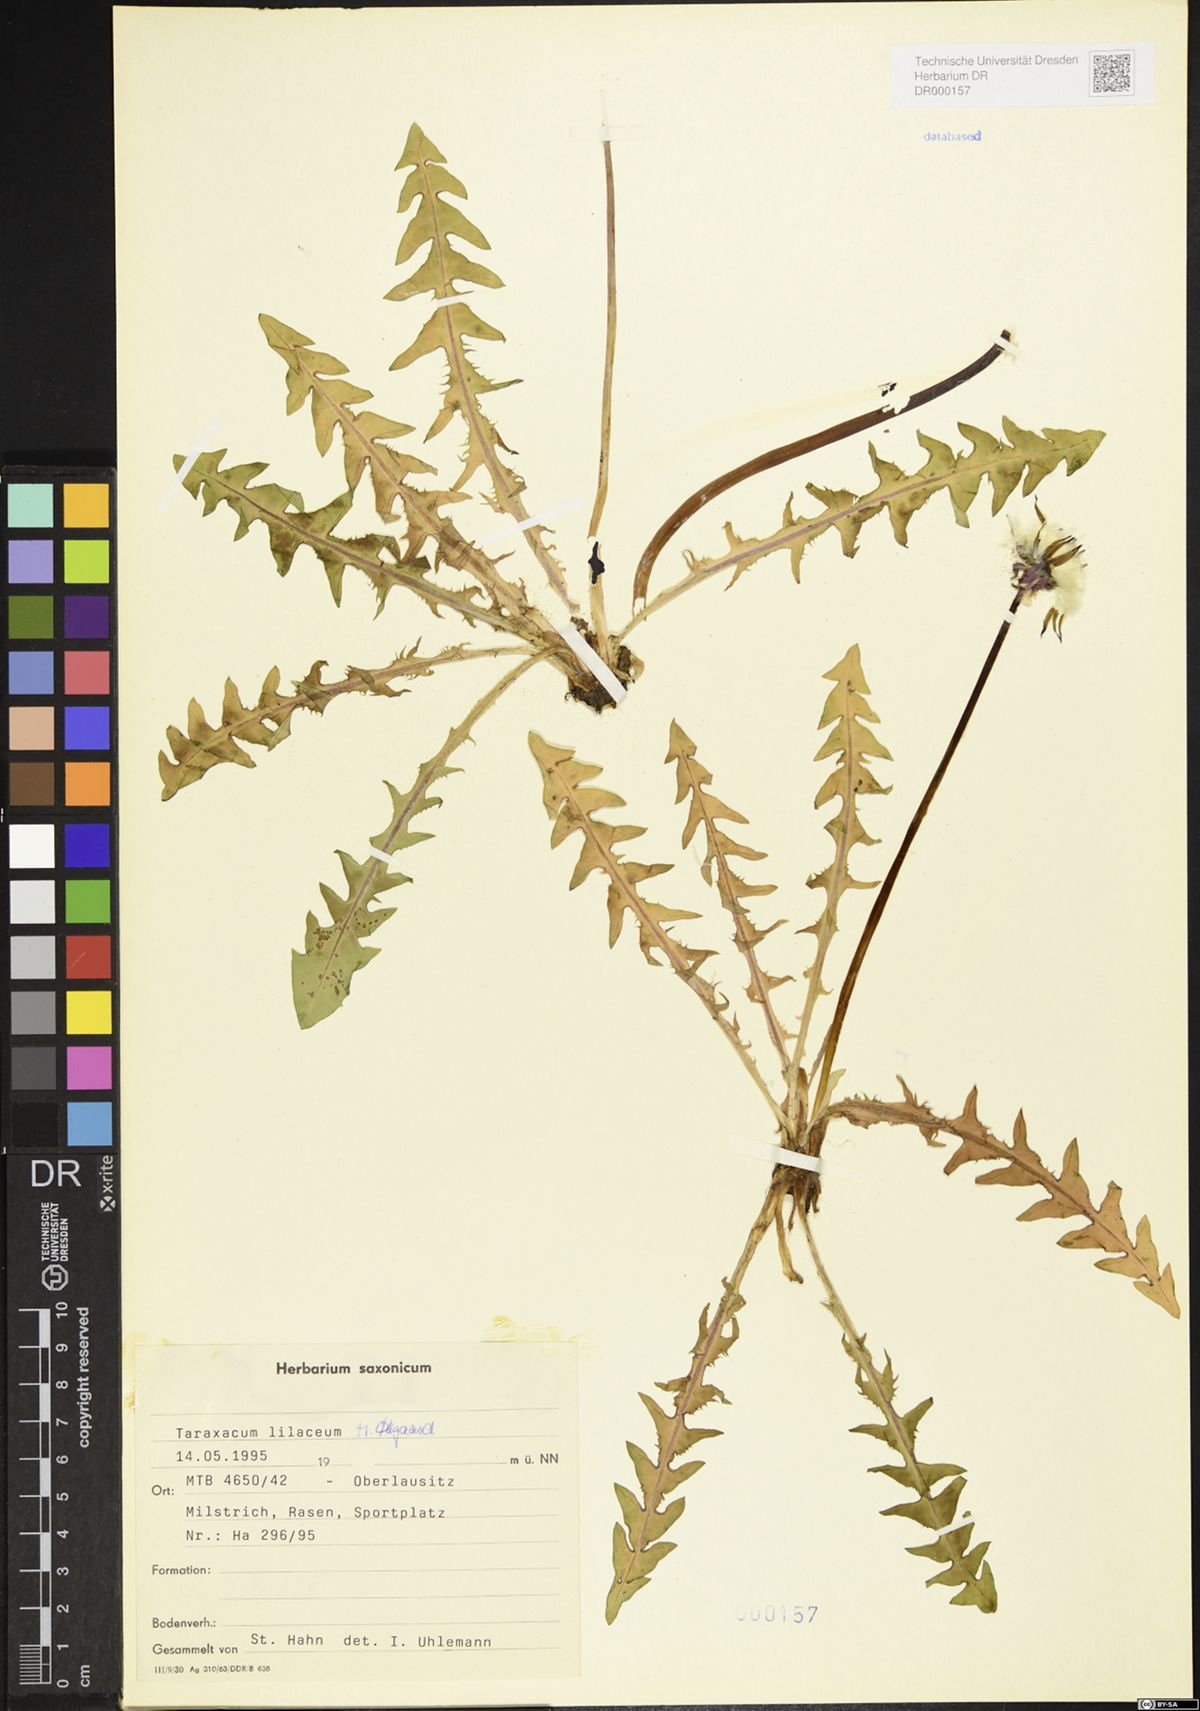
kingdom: Plantae
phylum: Tracheophyta
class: Magnoliopsida
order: Asterales
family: Asteraceae
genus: Taraxacum
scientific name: Taraxacum floccosum
